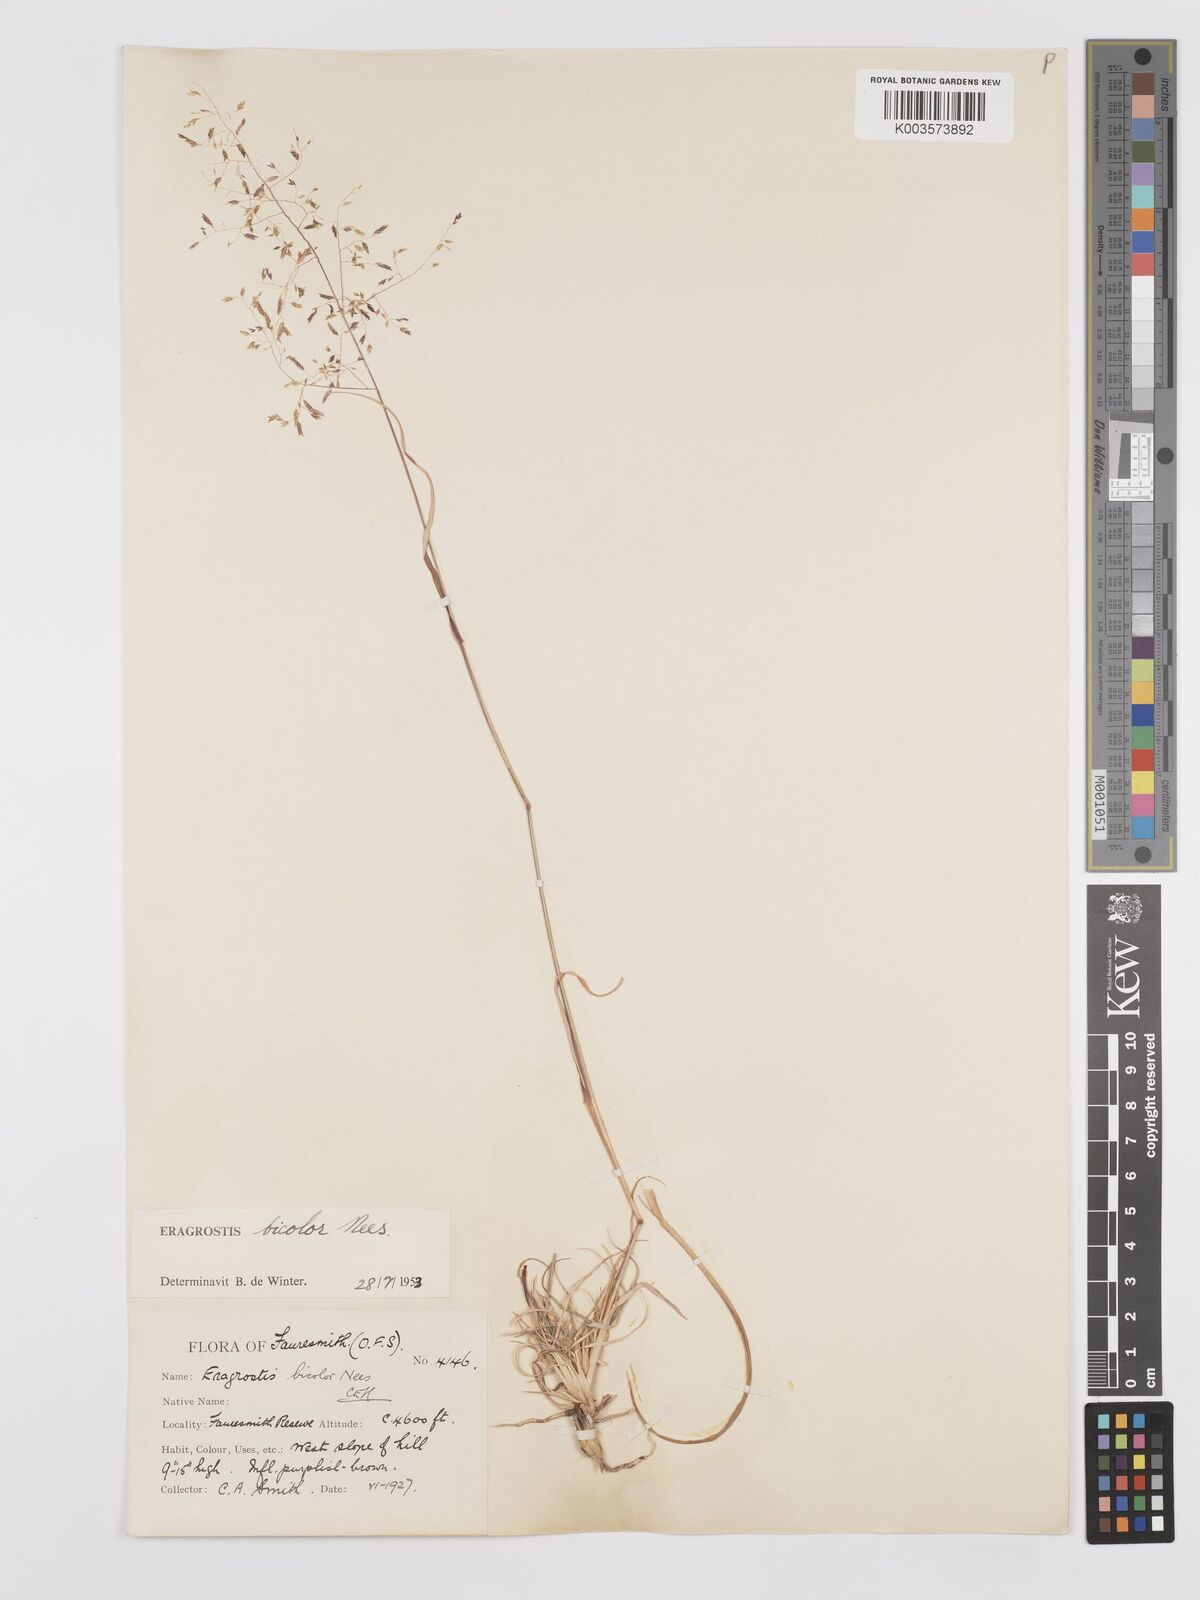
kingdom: Plantae
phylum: Tracheophyta
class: Liliopsida
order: Poales
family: Poaceae
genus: Eragrostis
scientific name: Eragrostis
